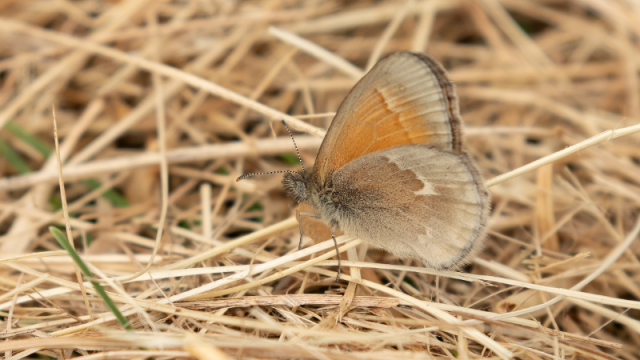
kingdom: Animalia
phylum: Arthropoda
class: Insecta
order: Lepidoptera
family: Nymphalidae
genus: Coenonympha
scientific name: Coenonympha tullia
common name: Large Heath
